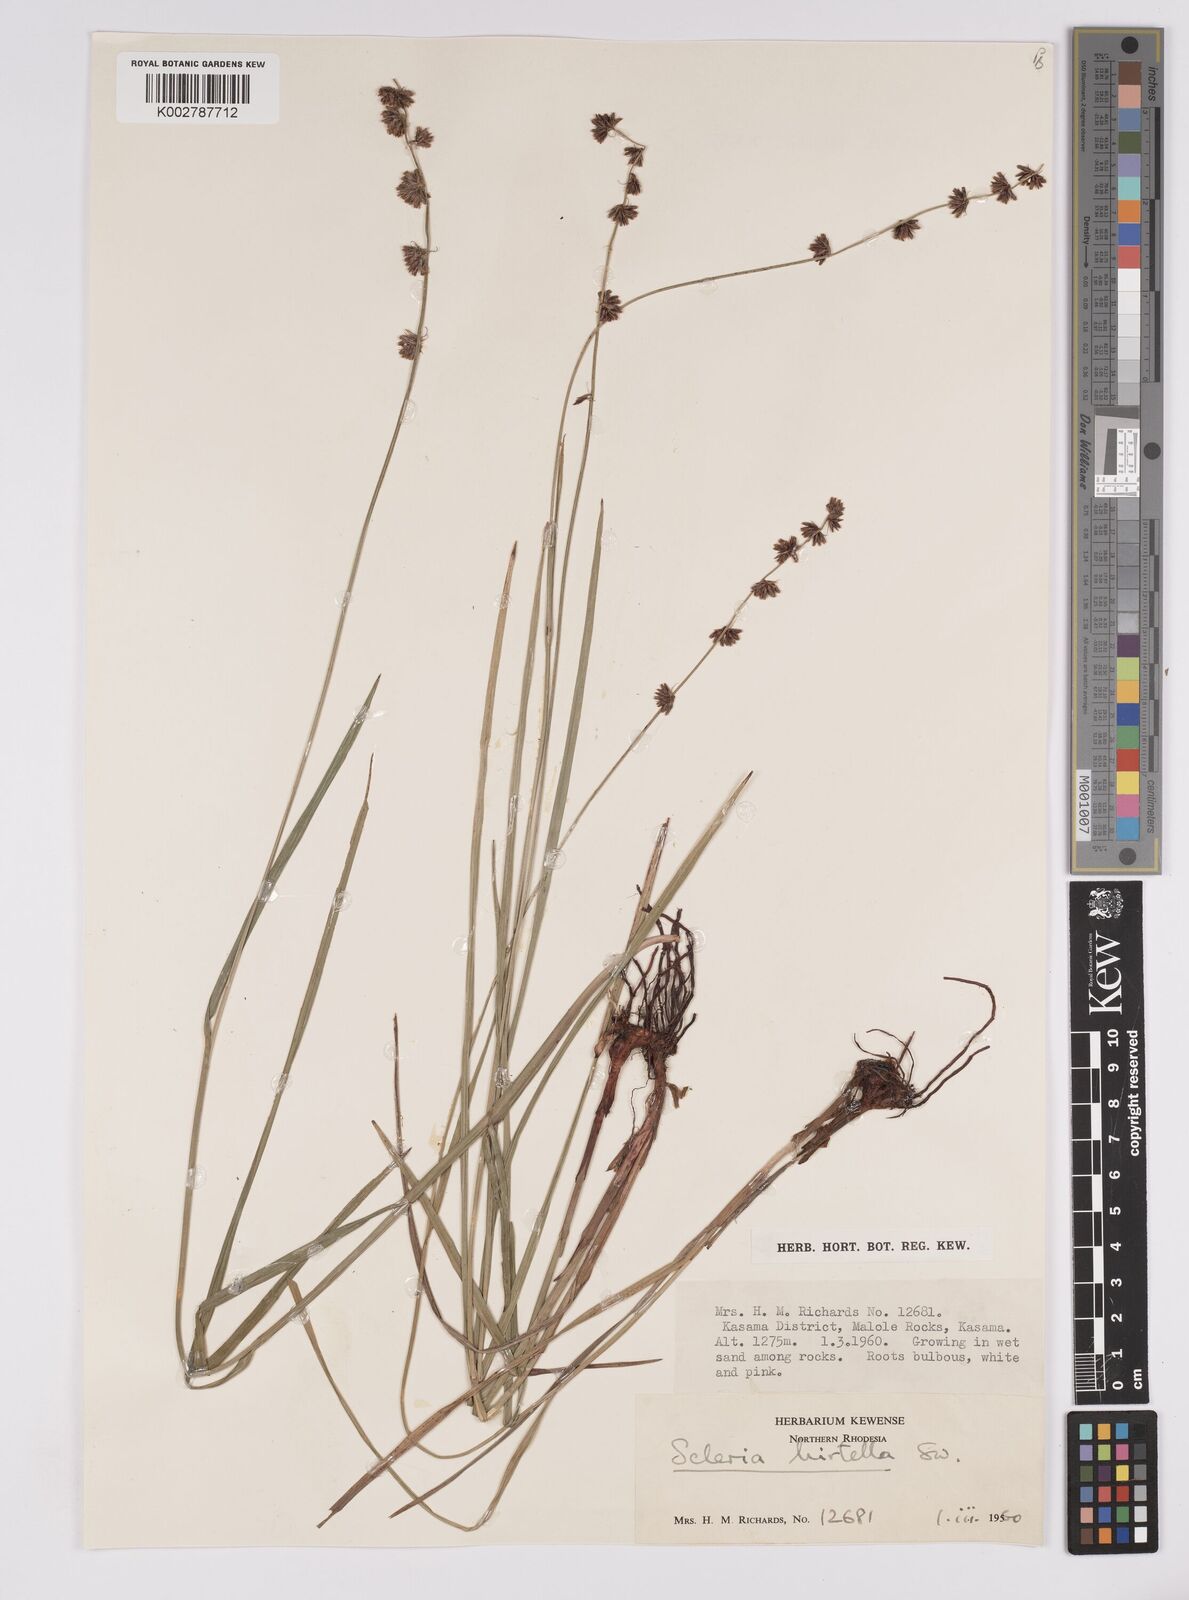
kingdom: Plantae
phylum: Tracheophyta
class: Liliopsida
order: Poales
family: Cyperaceae
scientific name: Cyperaceae
